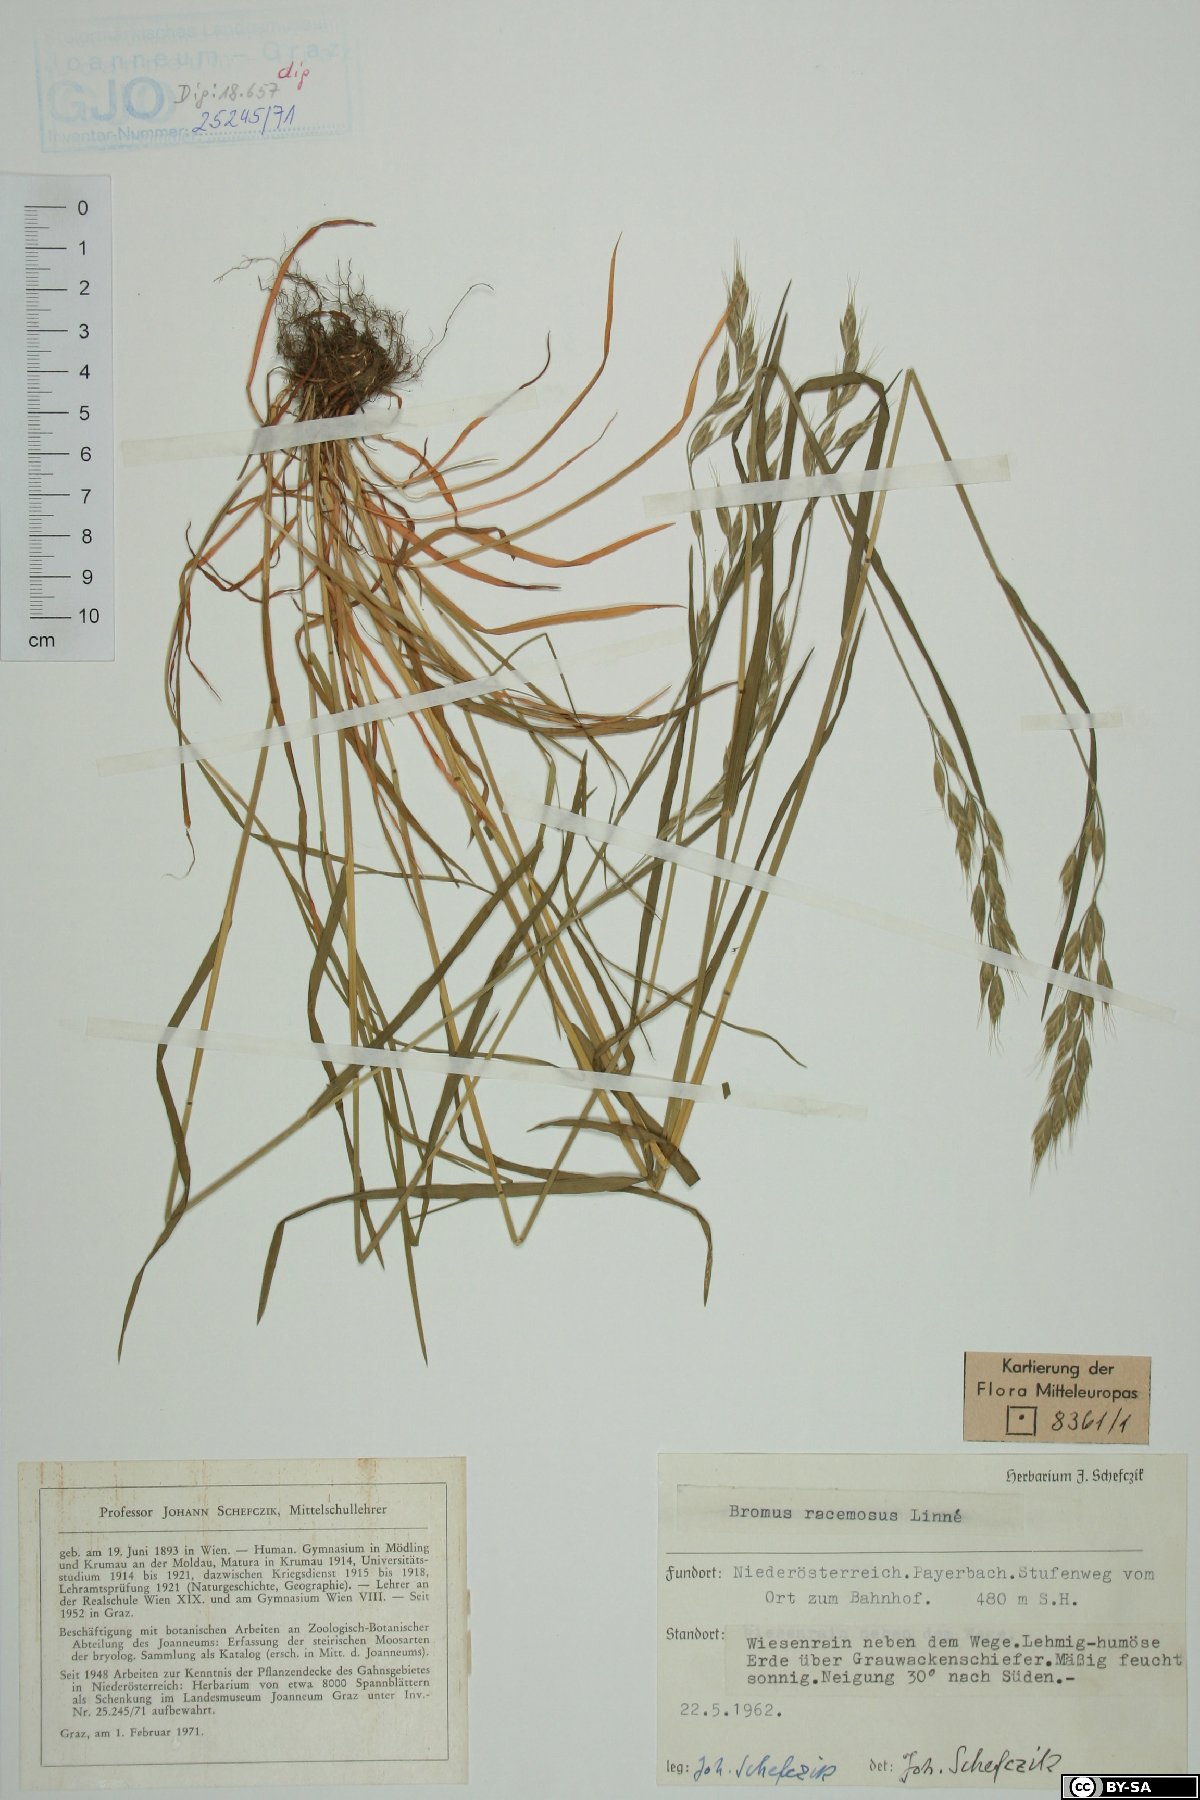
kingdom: Plantae
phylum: Tracheophyta
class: Liliopsida
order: Poales
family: Poaceae
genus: Bromus
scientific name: Bromus racemosus
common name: Bald brome
